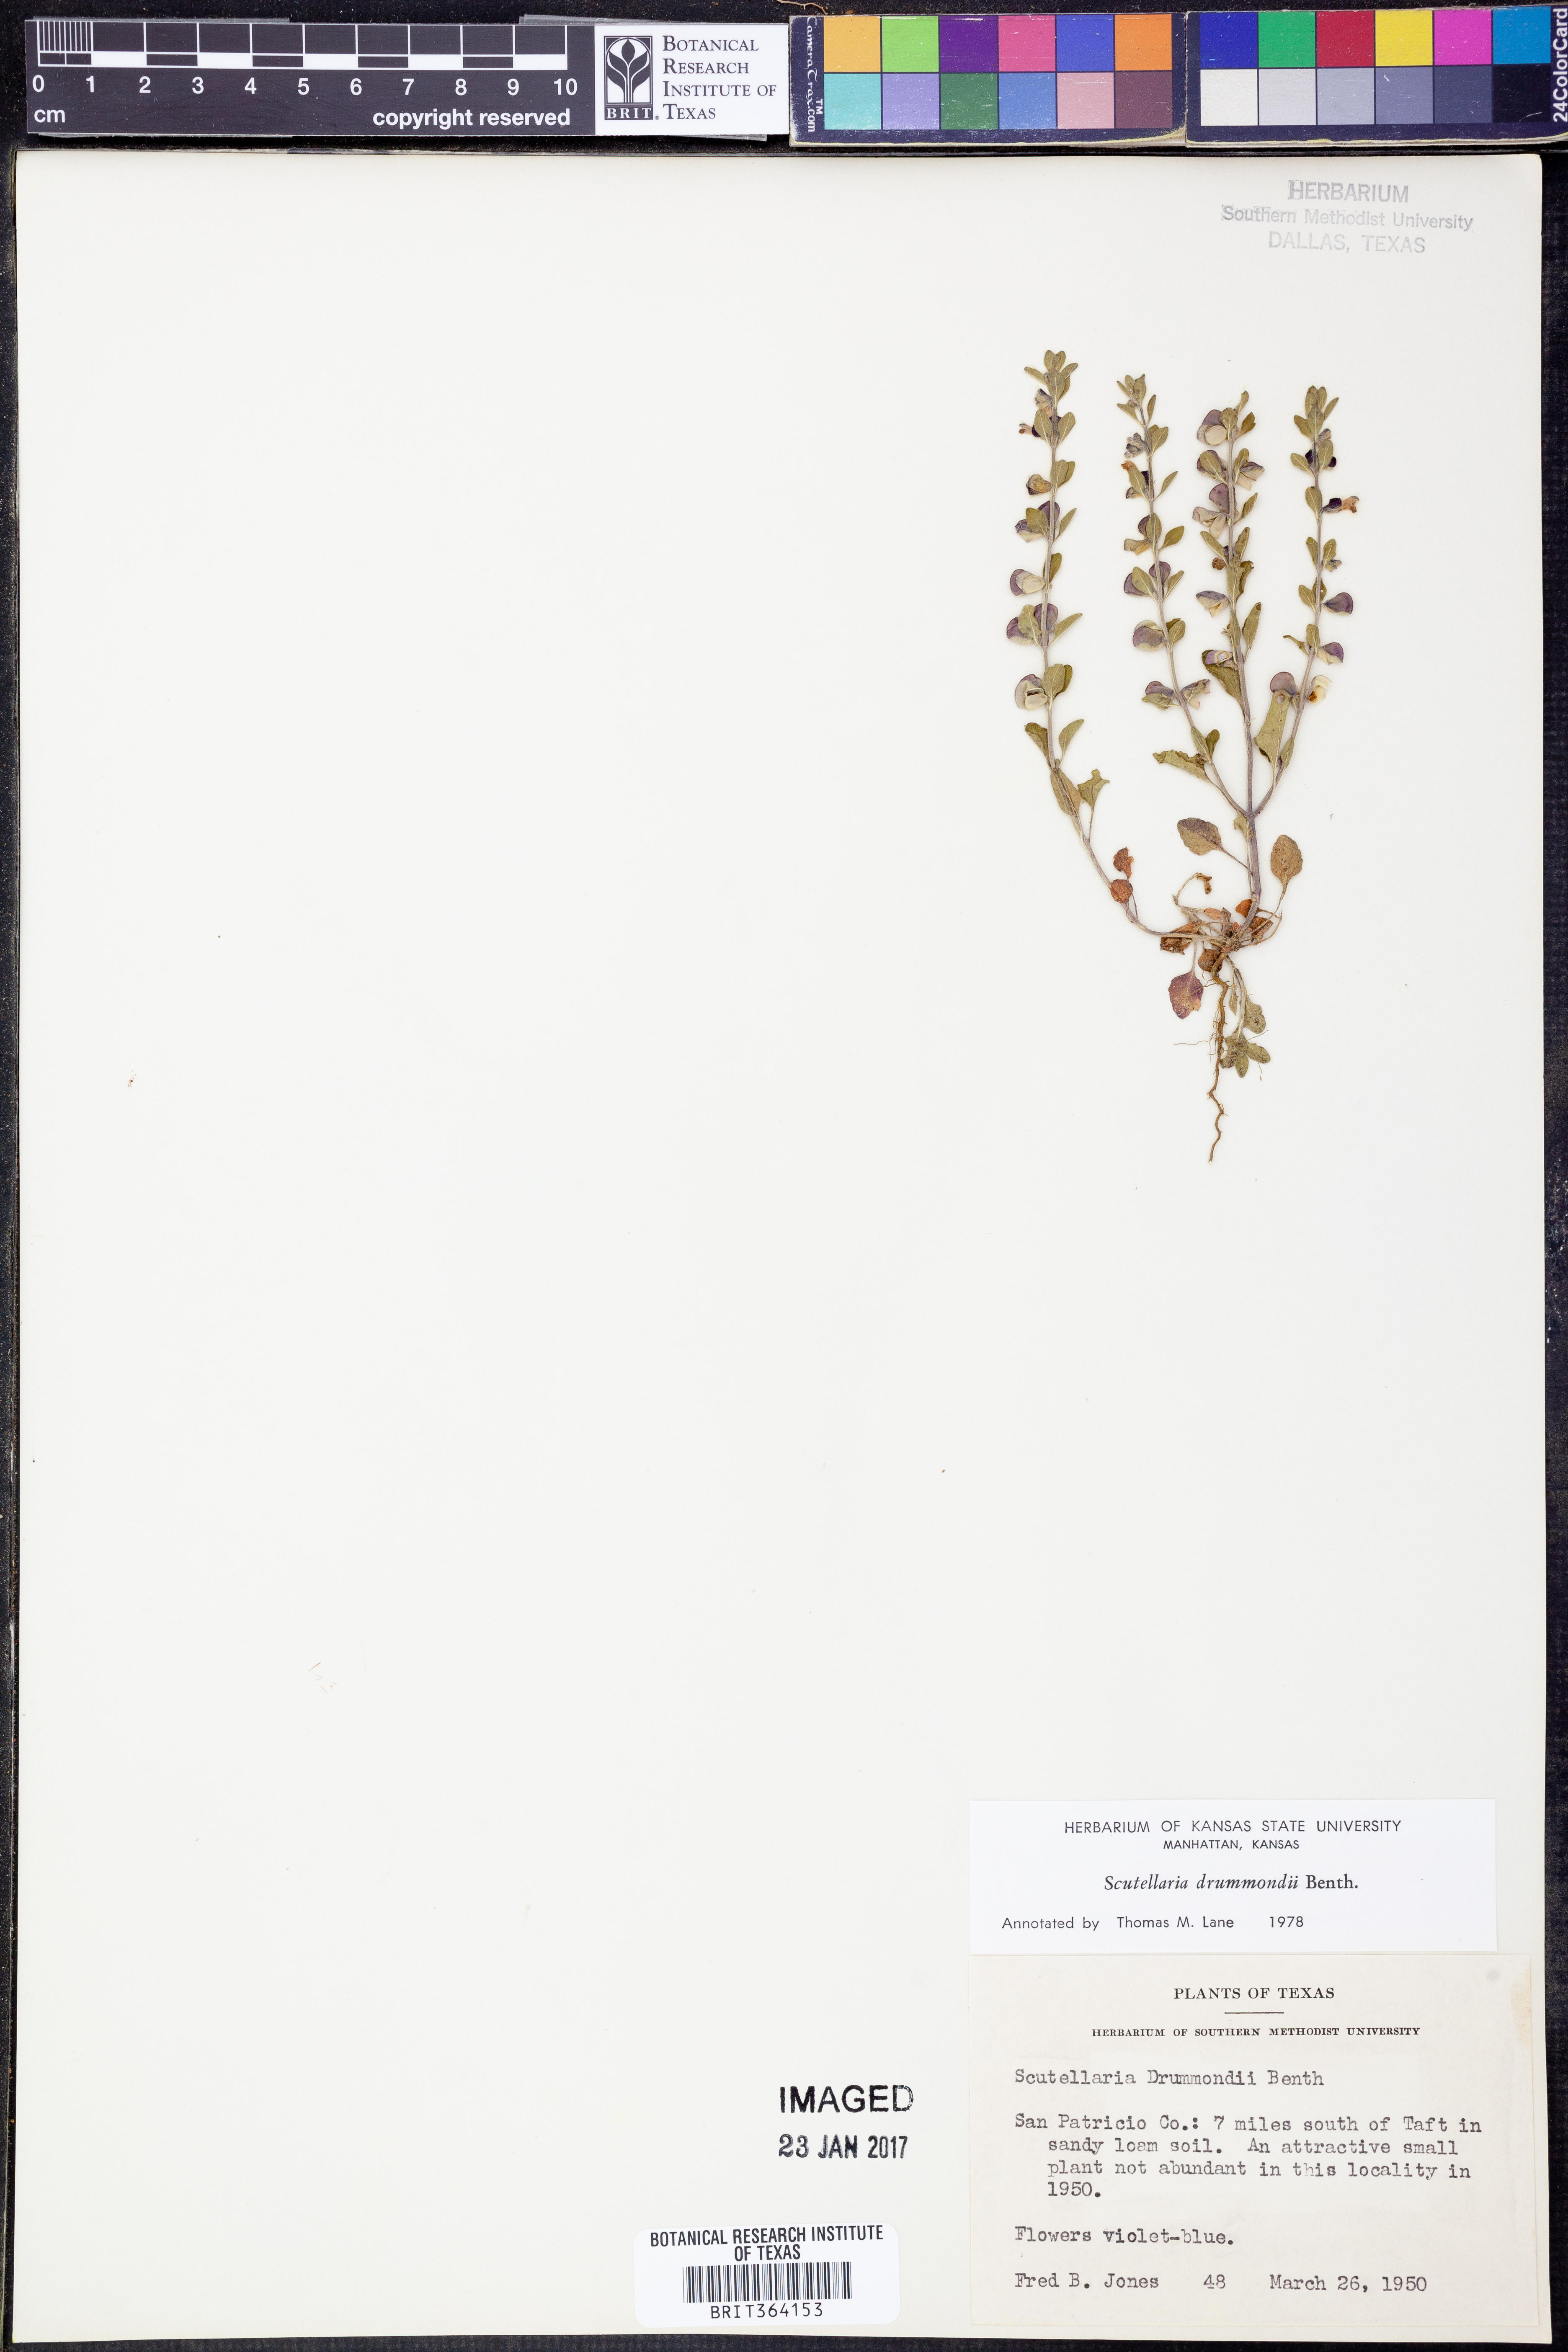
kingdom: Plantae
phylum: Tracheophyta
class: Magnoliopsida
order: Lamiales
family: Lamiaceae
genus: Scutellaria
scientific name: Scutellaria drummondii
